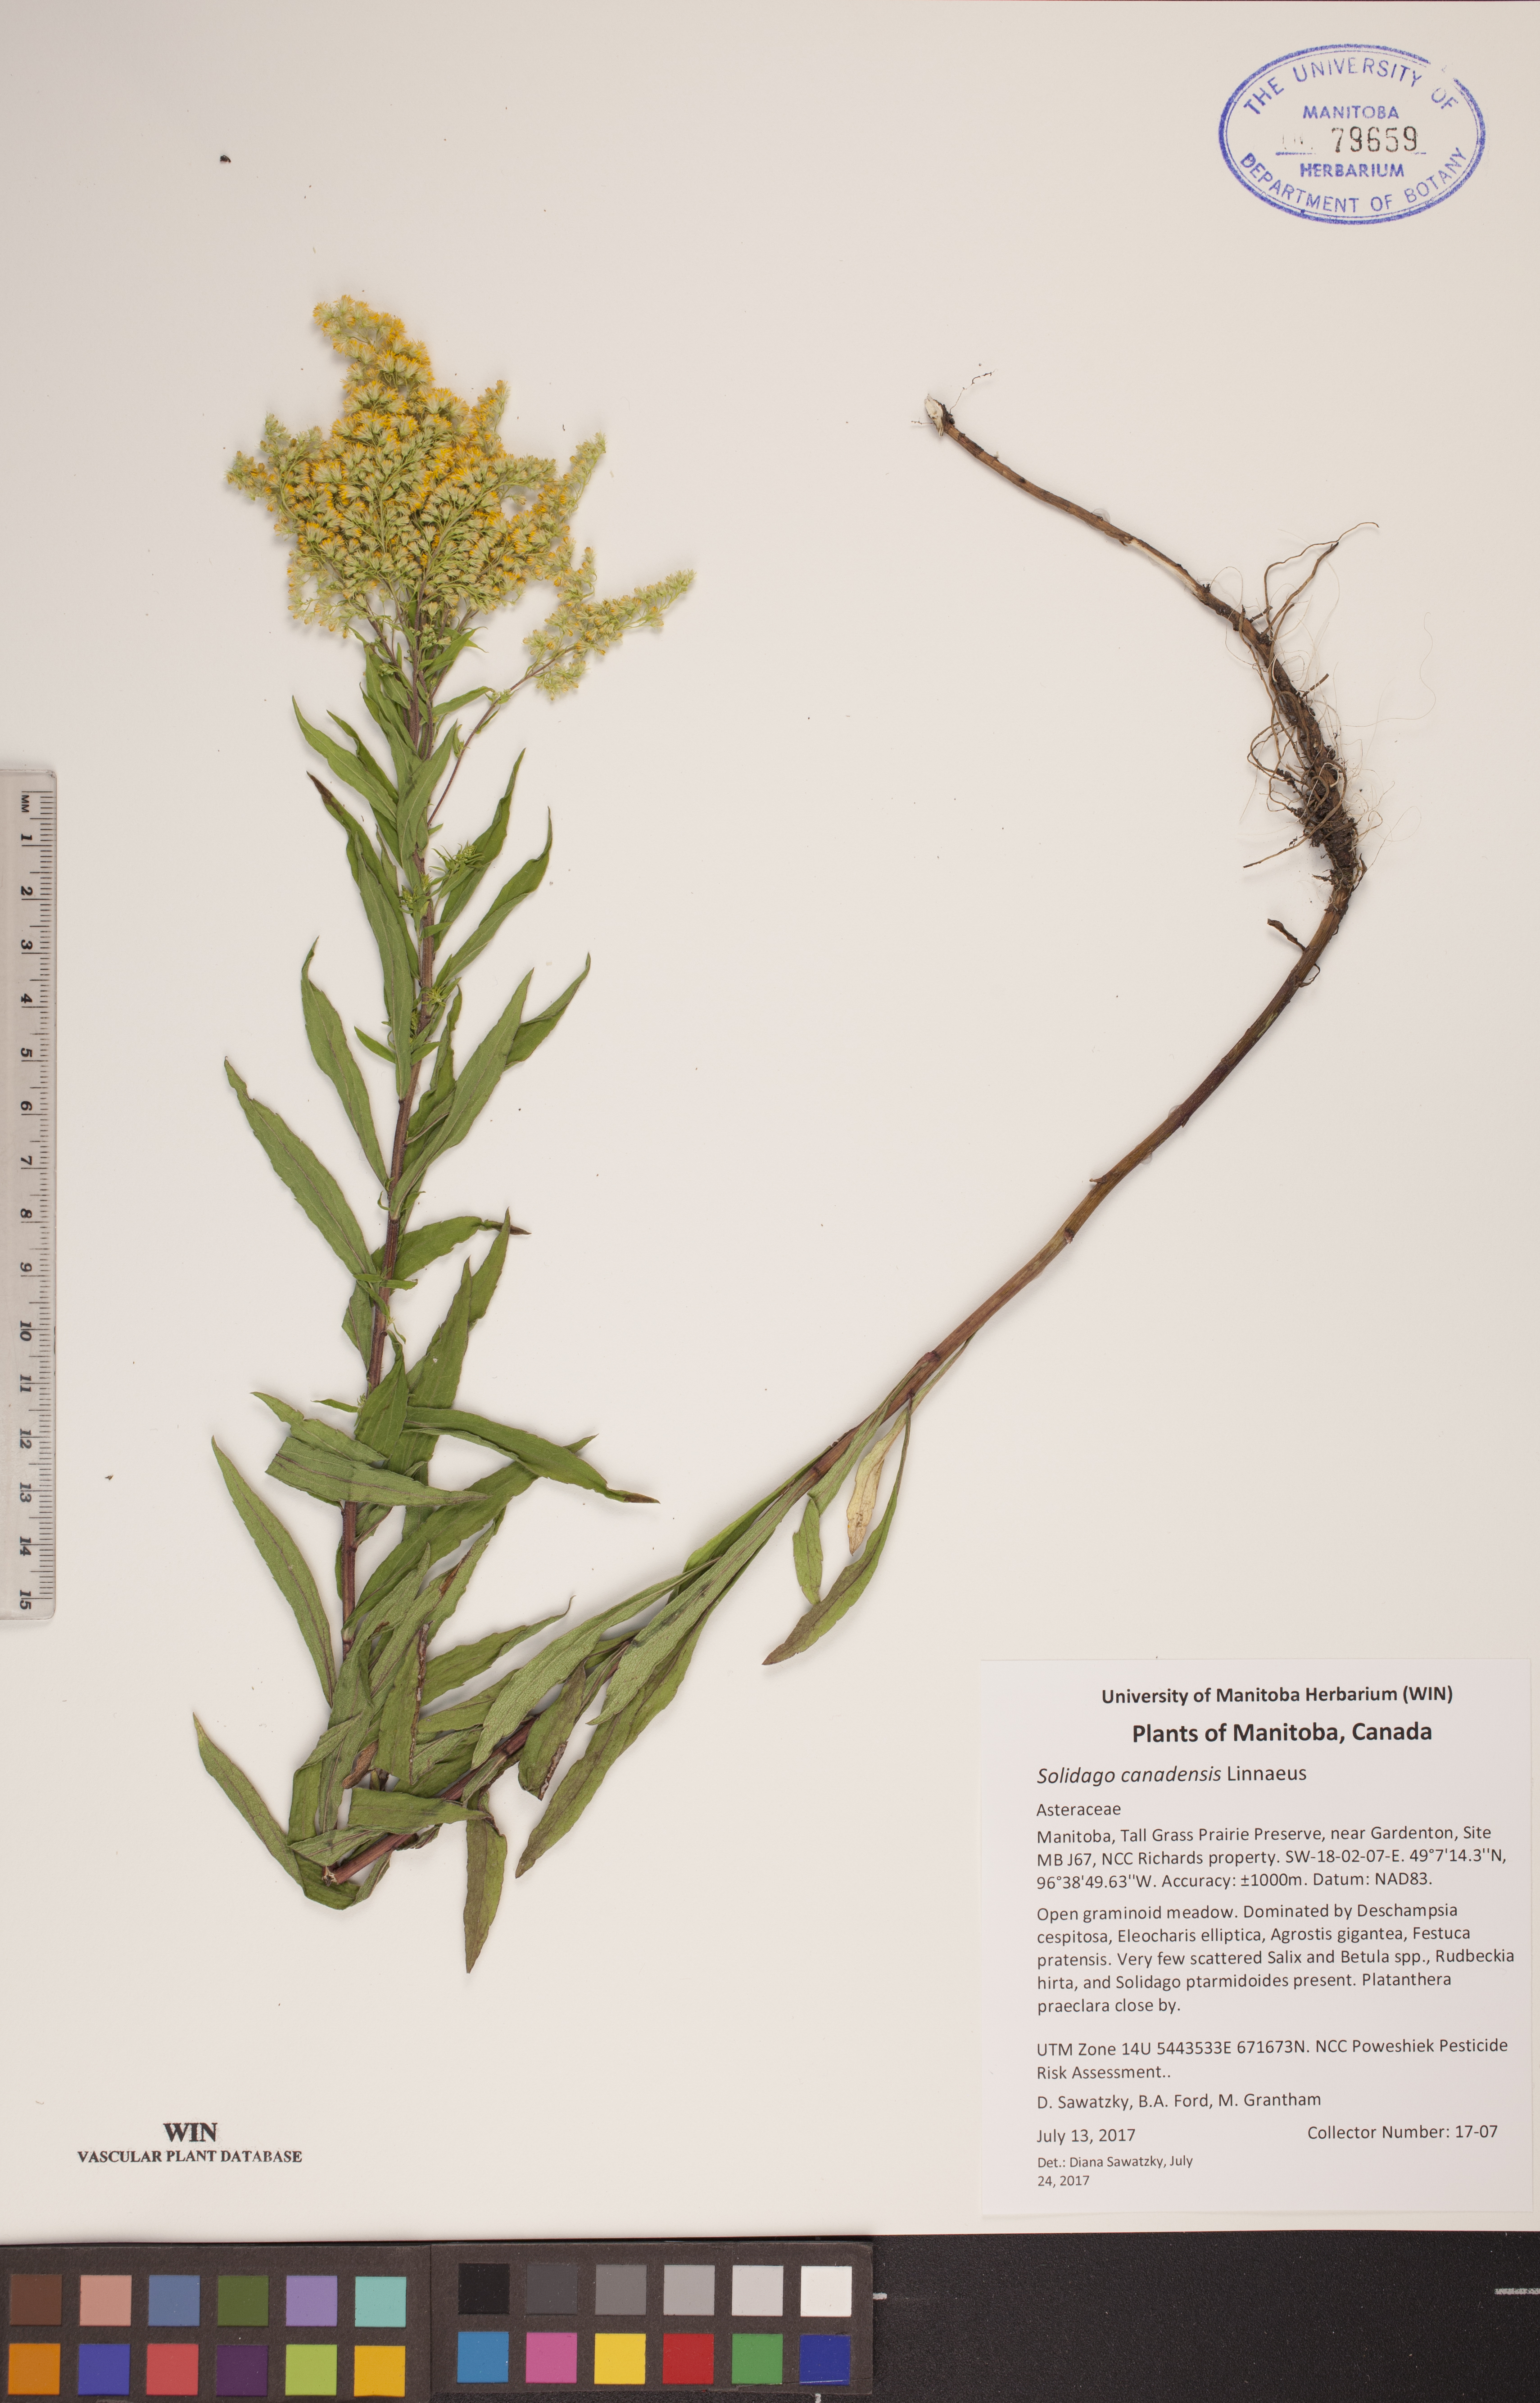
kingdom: Plantae
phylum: Tracheophyta
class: Magnoliopsida
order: Asterales
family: Asteraceae
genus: Solidago
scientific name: Solidago canadensis
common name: Canada goldenrod
